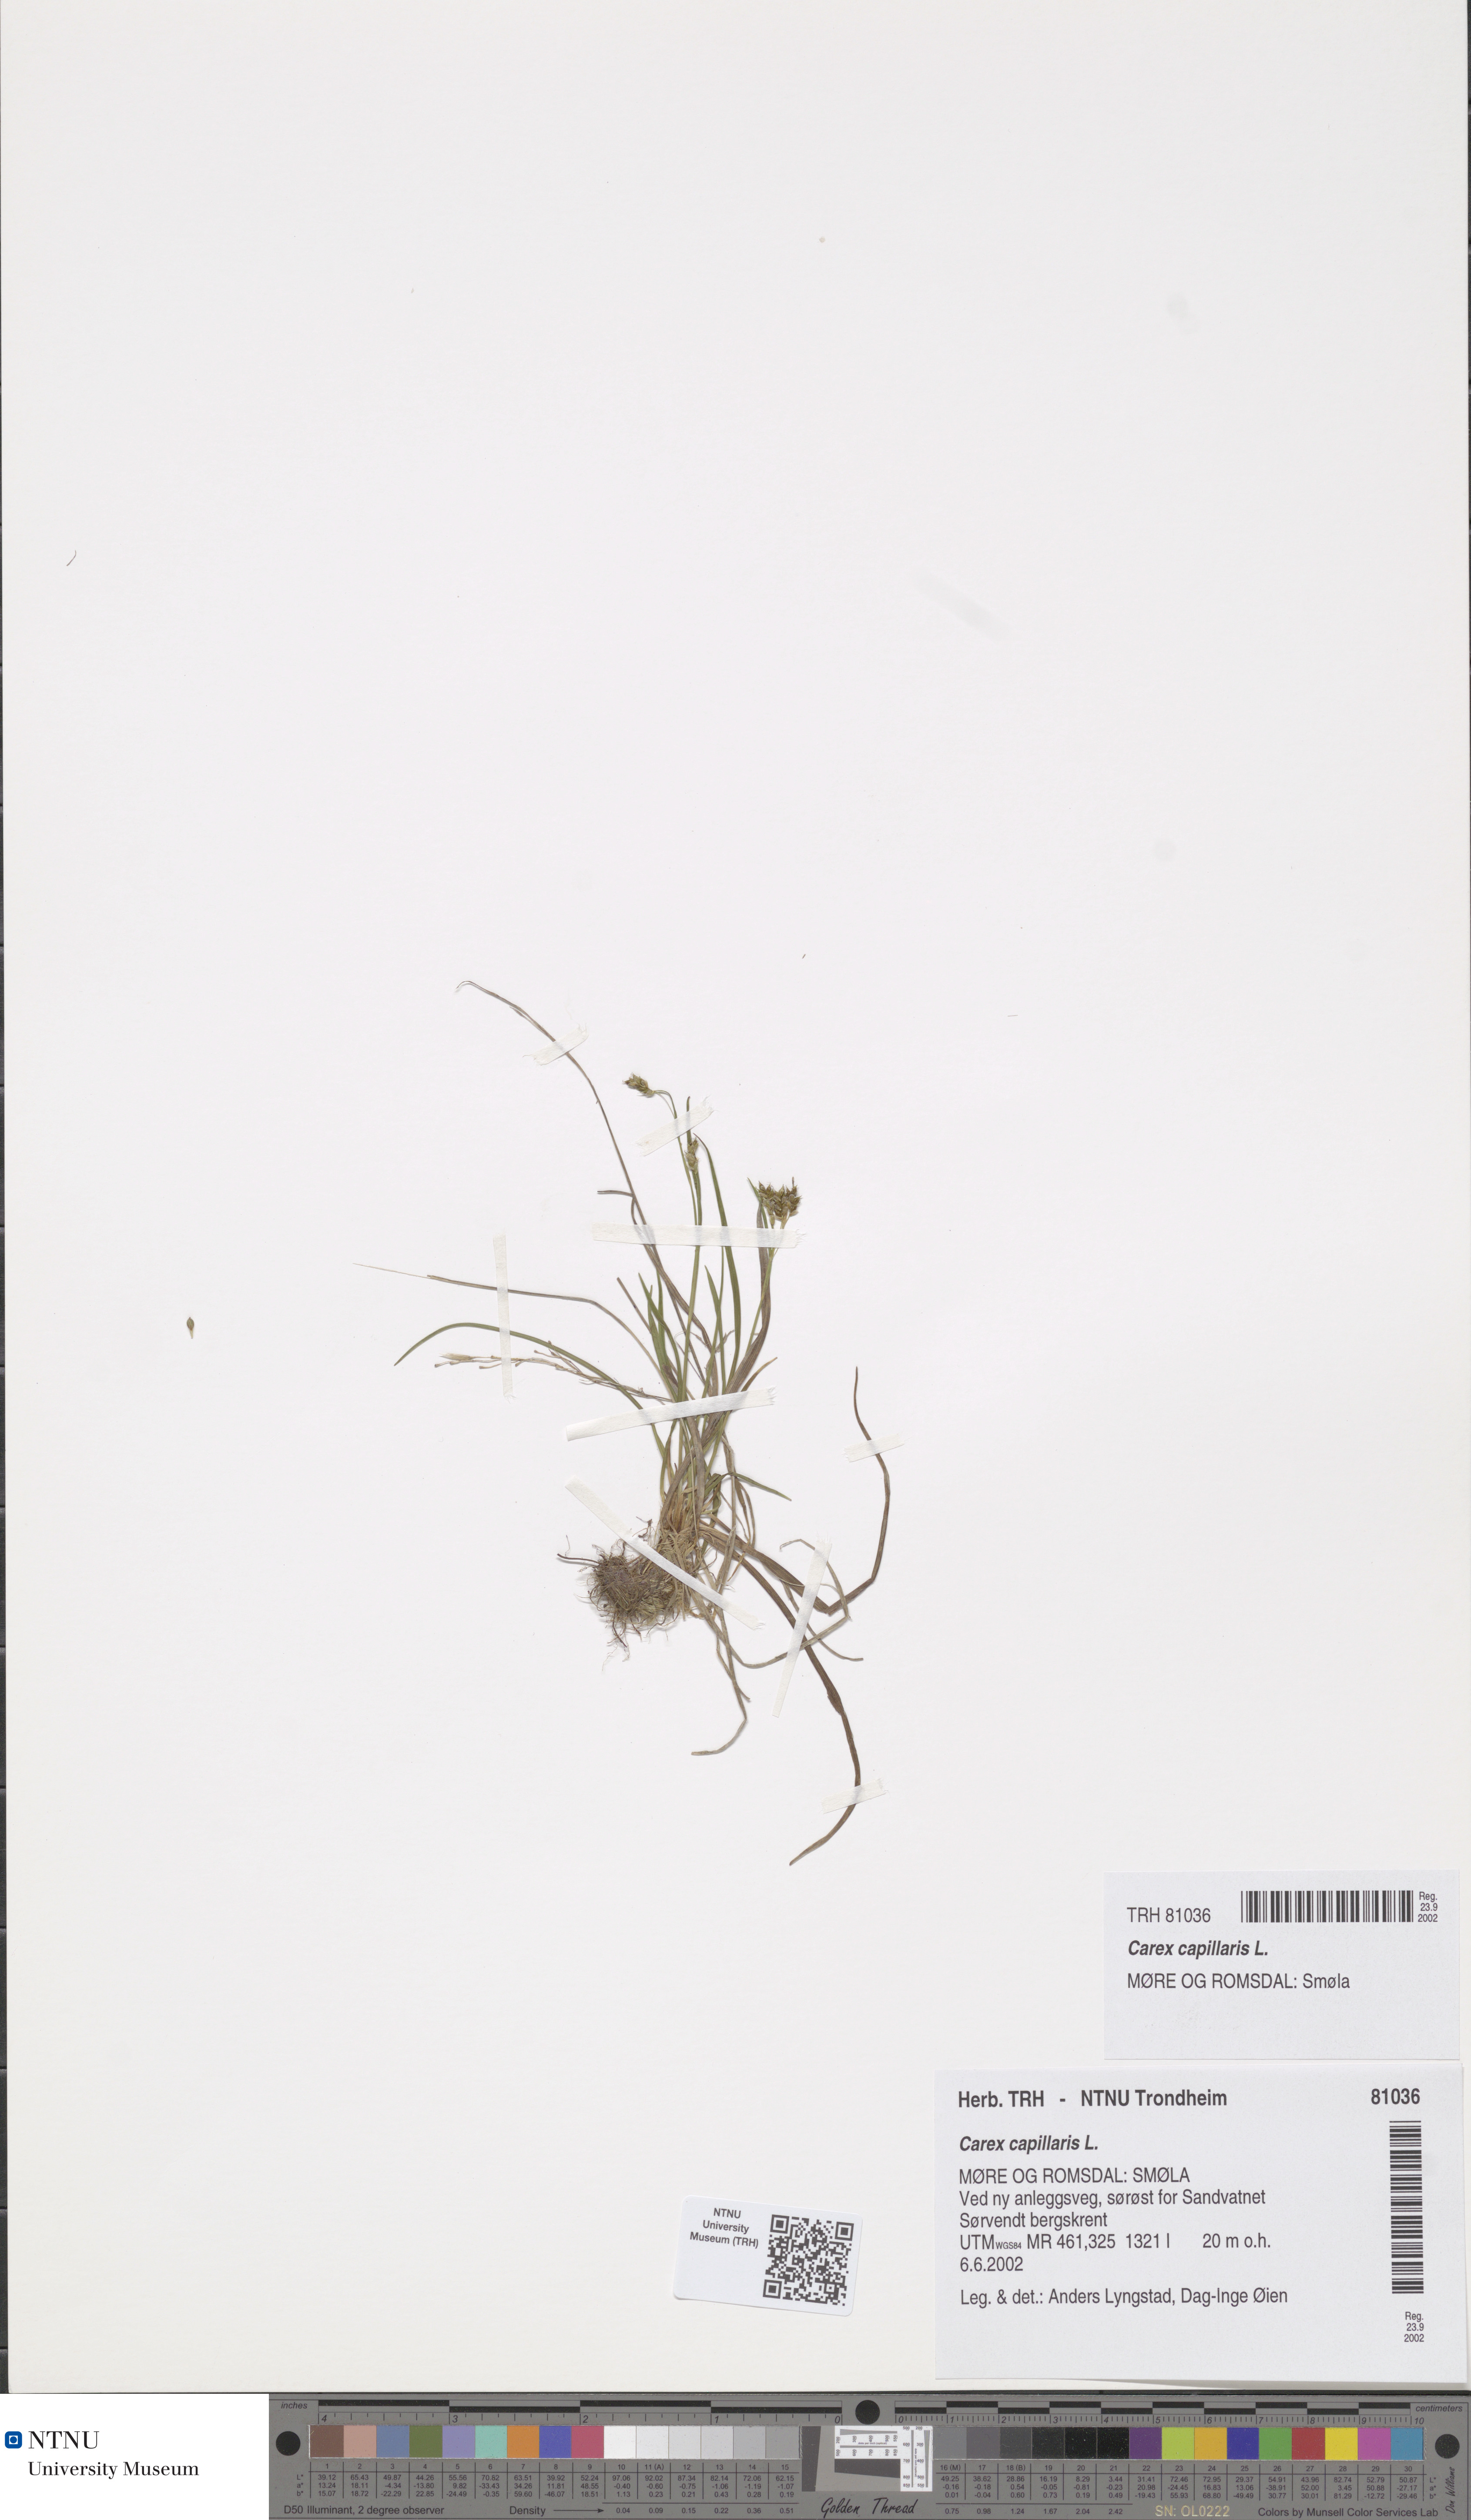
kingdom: Plantae
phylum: Tracheophyta
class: Liliopsida
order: Poales
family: Cyperaceae
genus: Carex
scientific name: Carex capillaris
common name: Hair sedge
